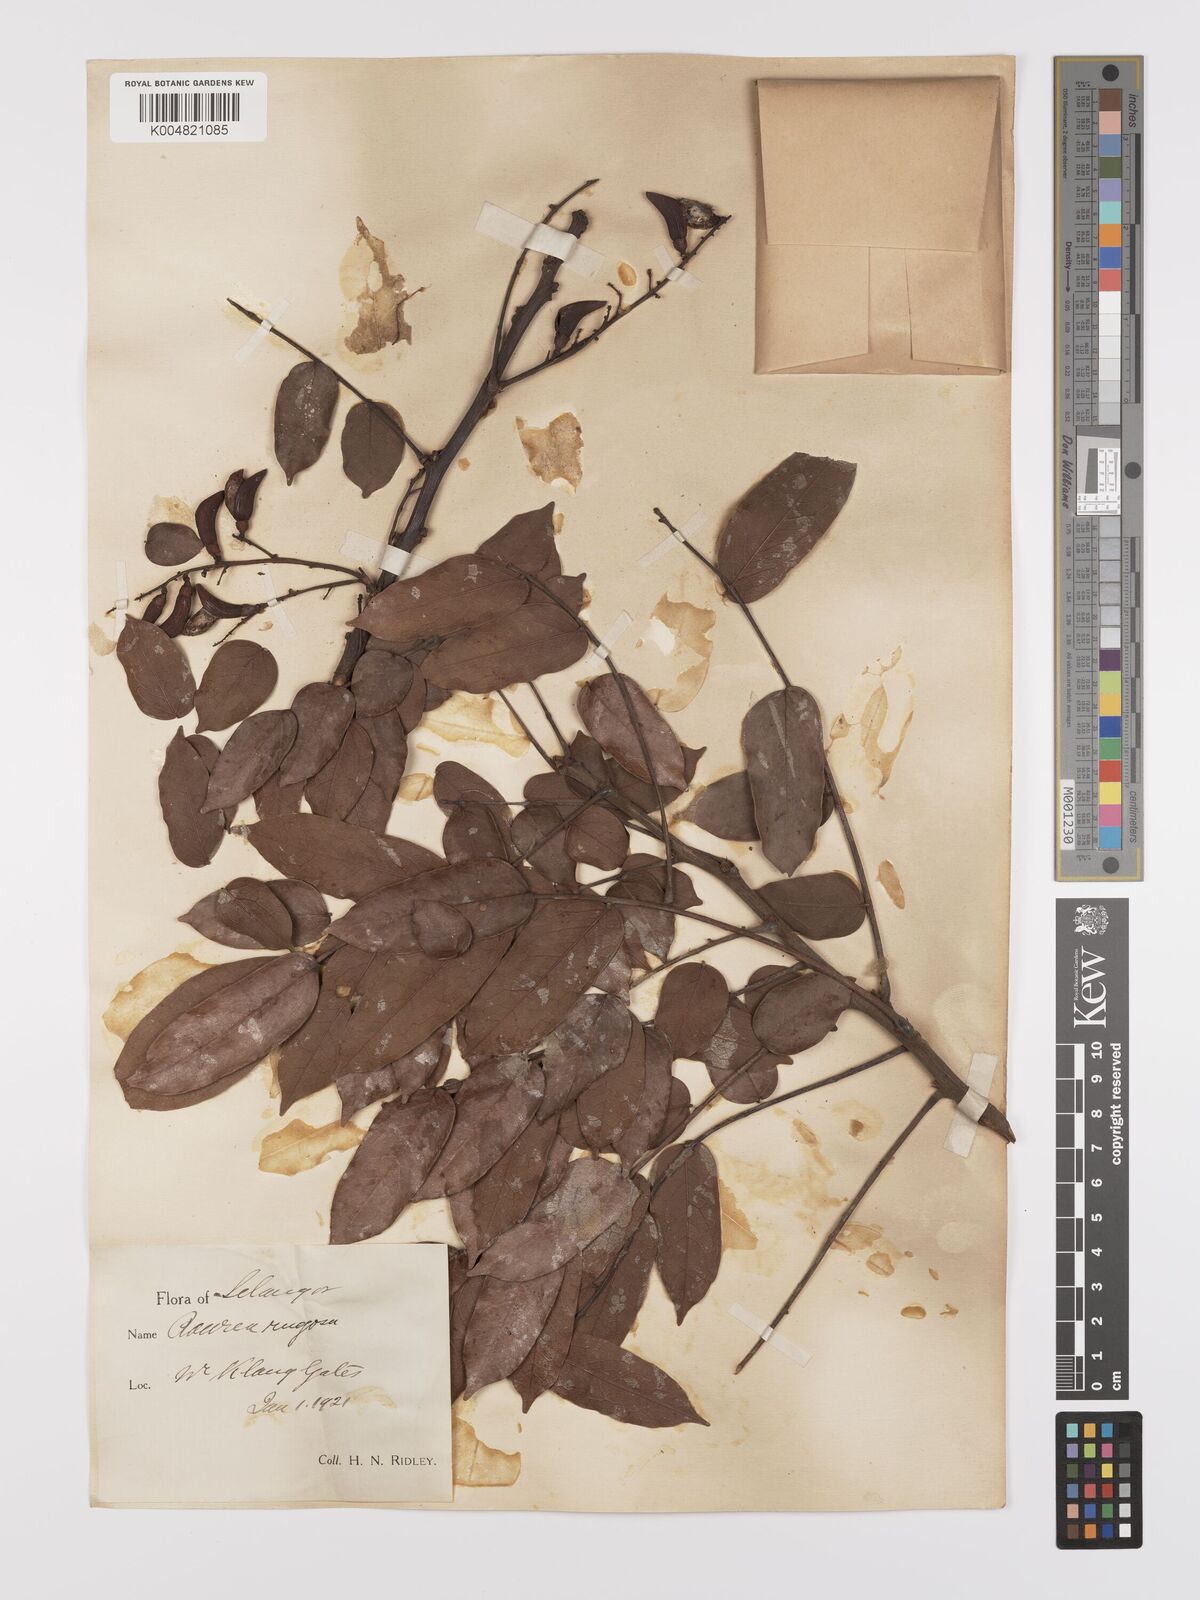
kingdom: Plantae
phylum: Tracheophyta
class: Magnoliopsida
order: Oxalidales
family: Connaraceae
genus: Rourea
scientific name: Rourea rugosa
